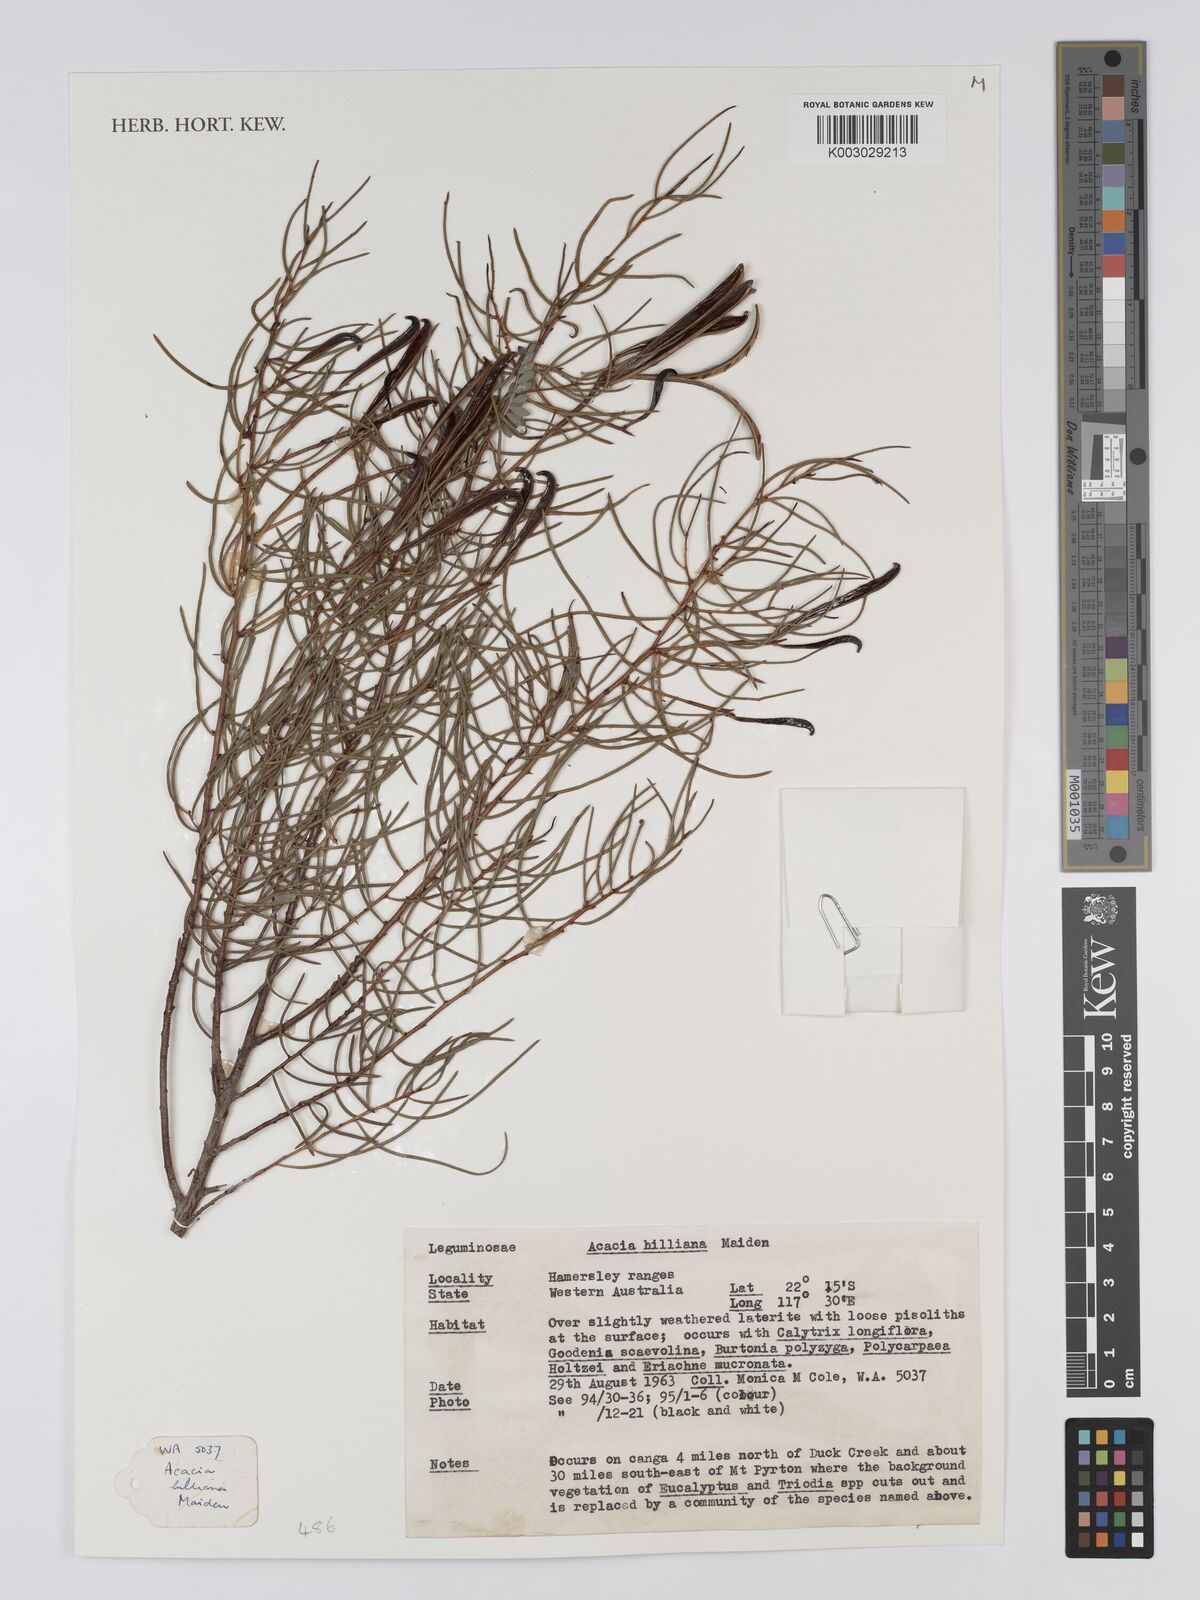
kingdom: Plantae
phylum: Tracheophyta
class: Magnoliopsida
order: Fabales
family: Fabaceae
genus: Acacia
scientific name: Acacia hilliana
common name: Hill's tabletop wattle
